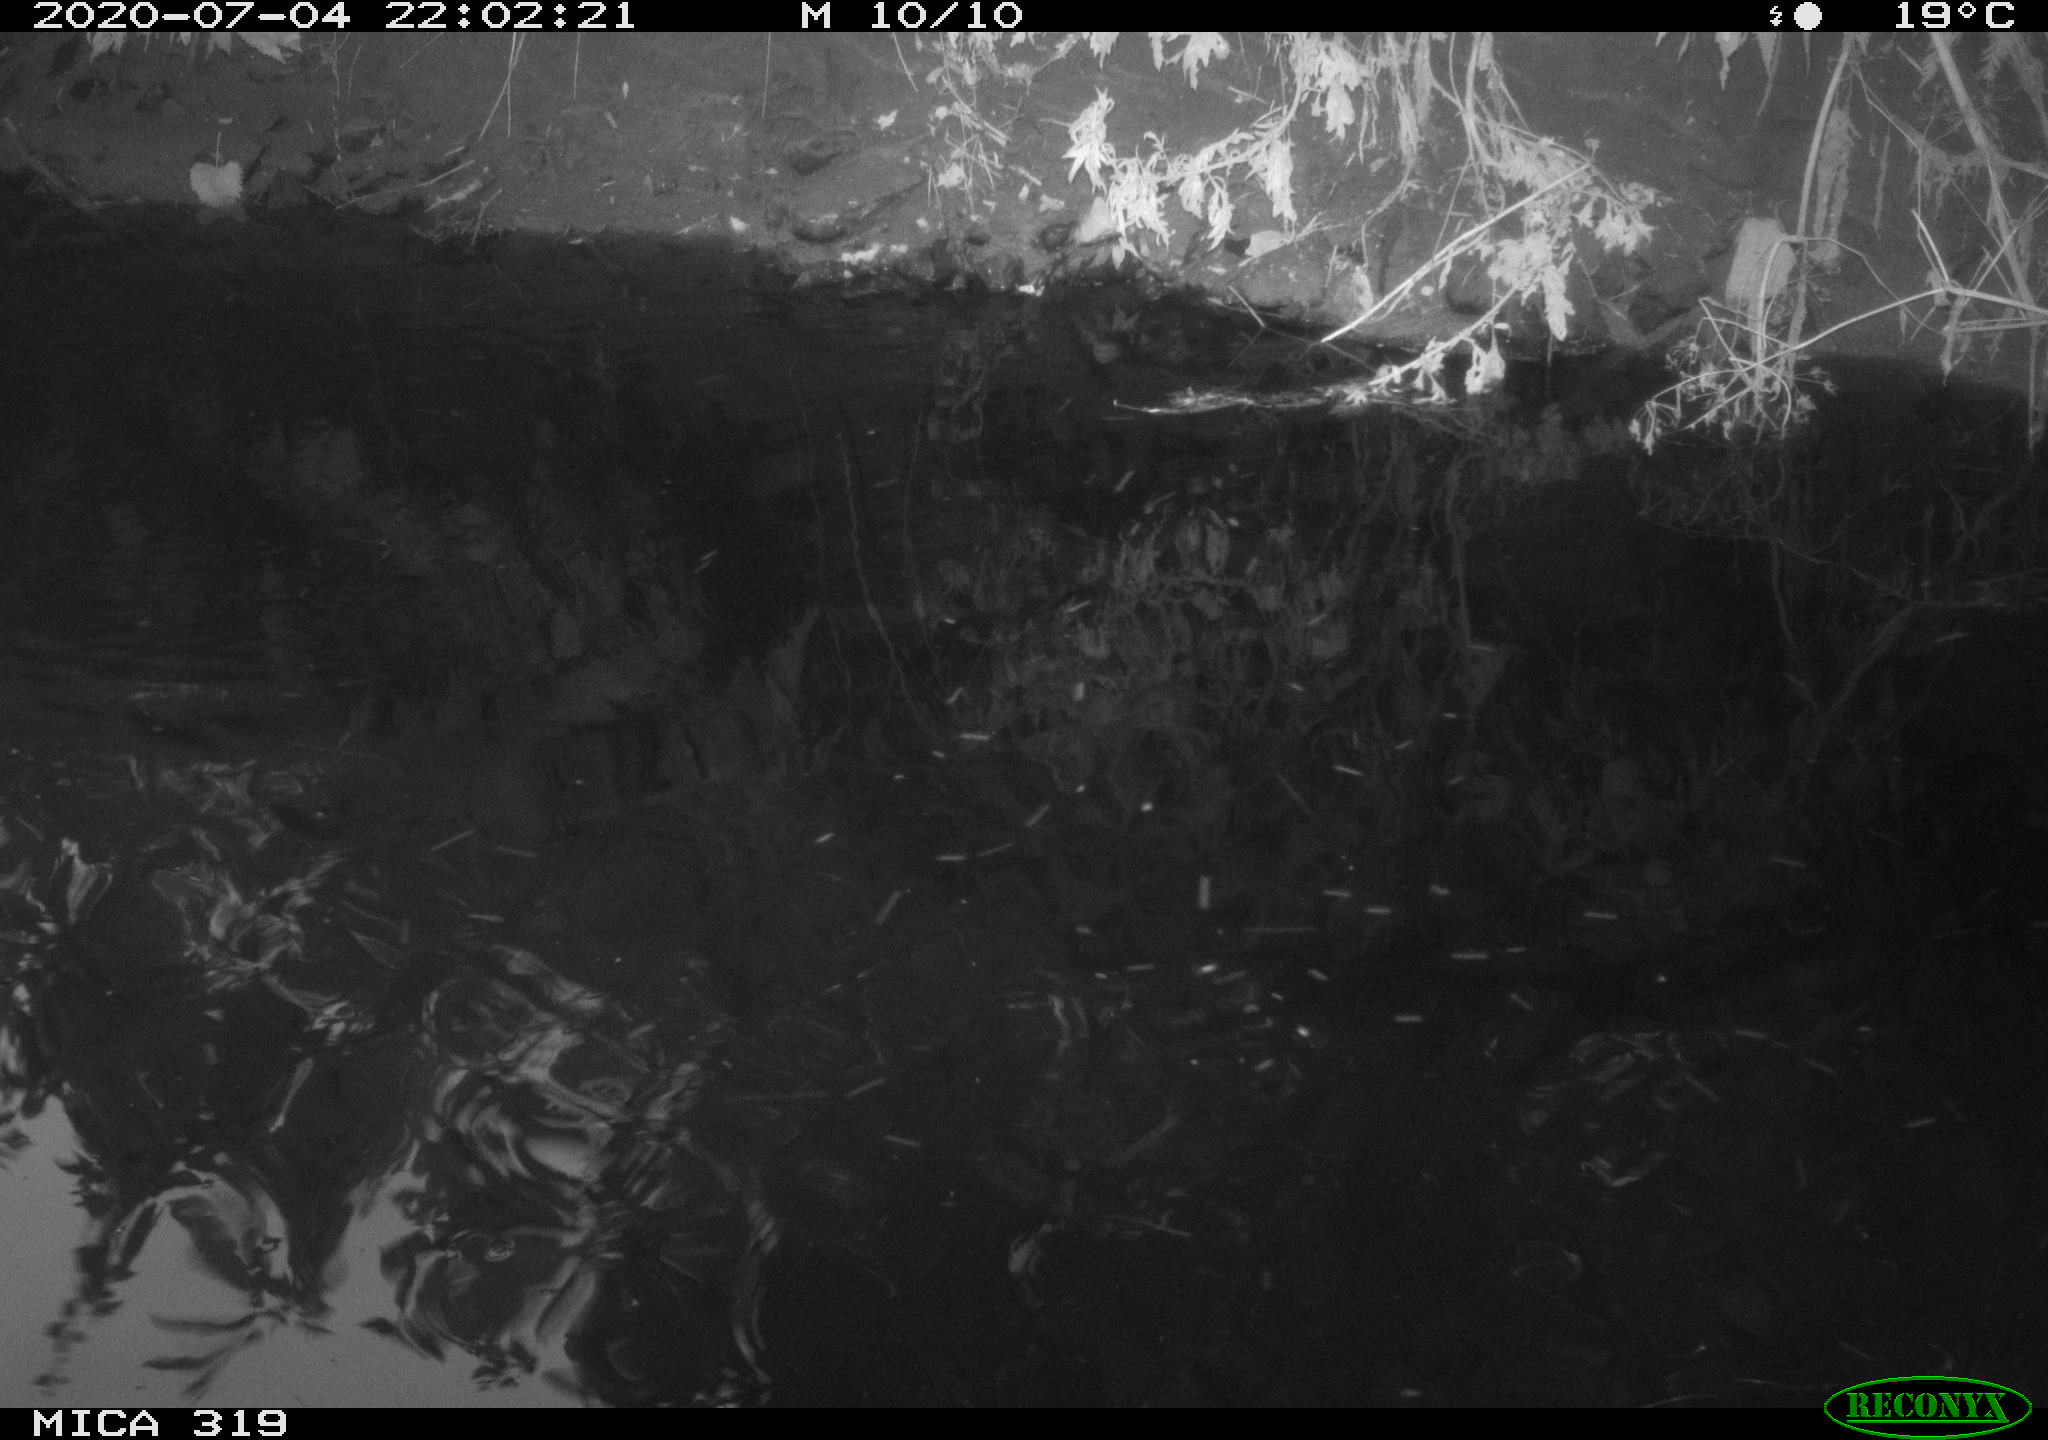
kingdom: Animalia
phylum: Chordata
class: Aves
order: Anseriformes
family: Anatidae
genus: Anas
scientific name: Anas platyrhynchos
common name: Mallard
